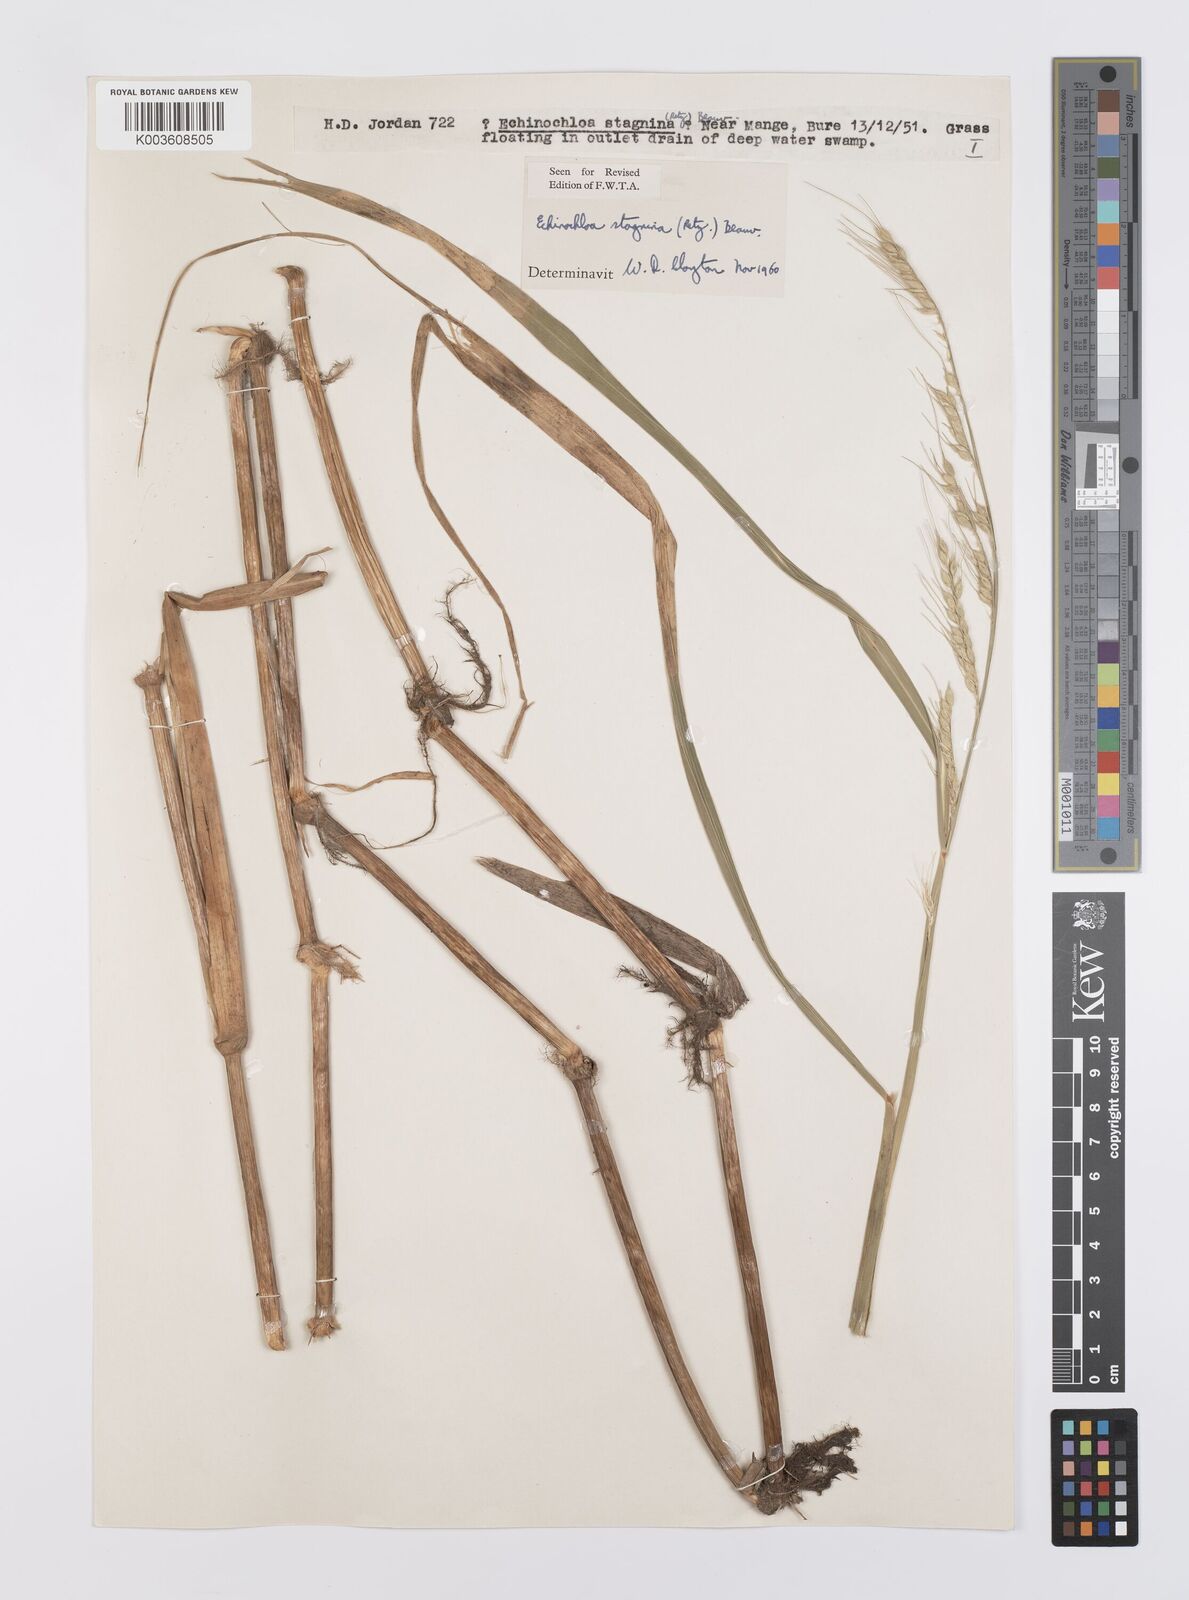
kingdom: Plantae
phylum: Tracheophyta
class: Liliopsida
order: Poales
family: Poaceae
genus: Echinochloa
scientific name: Echinochloa stagnina
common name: Burgu grass
